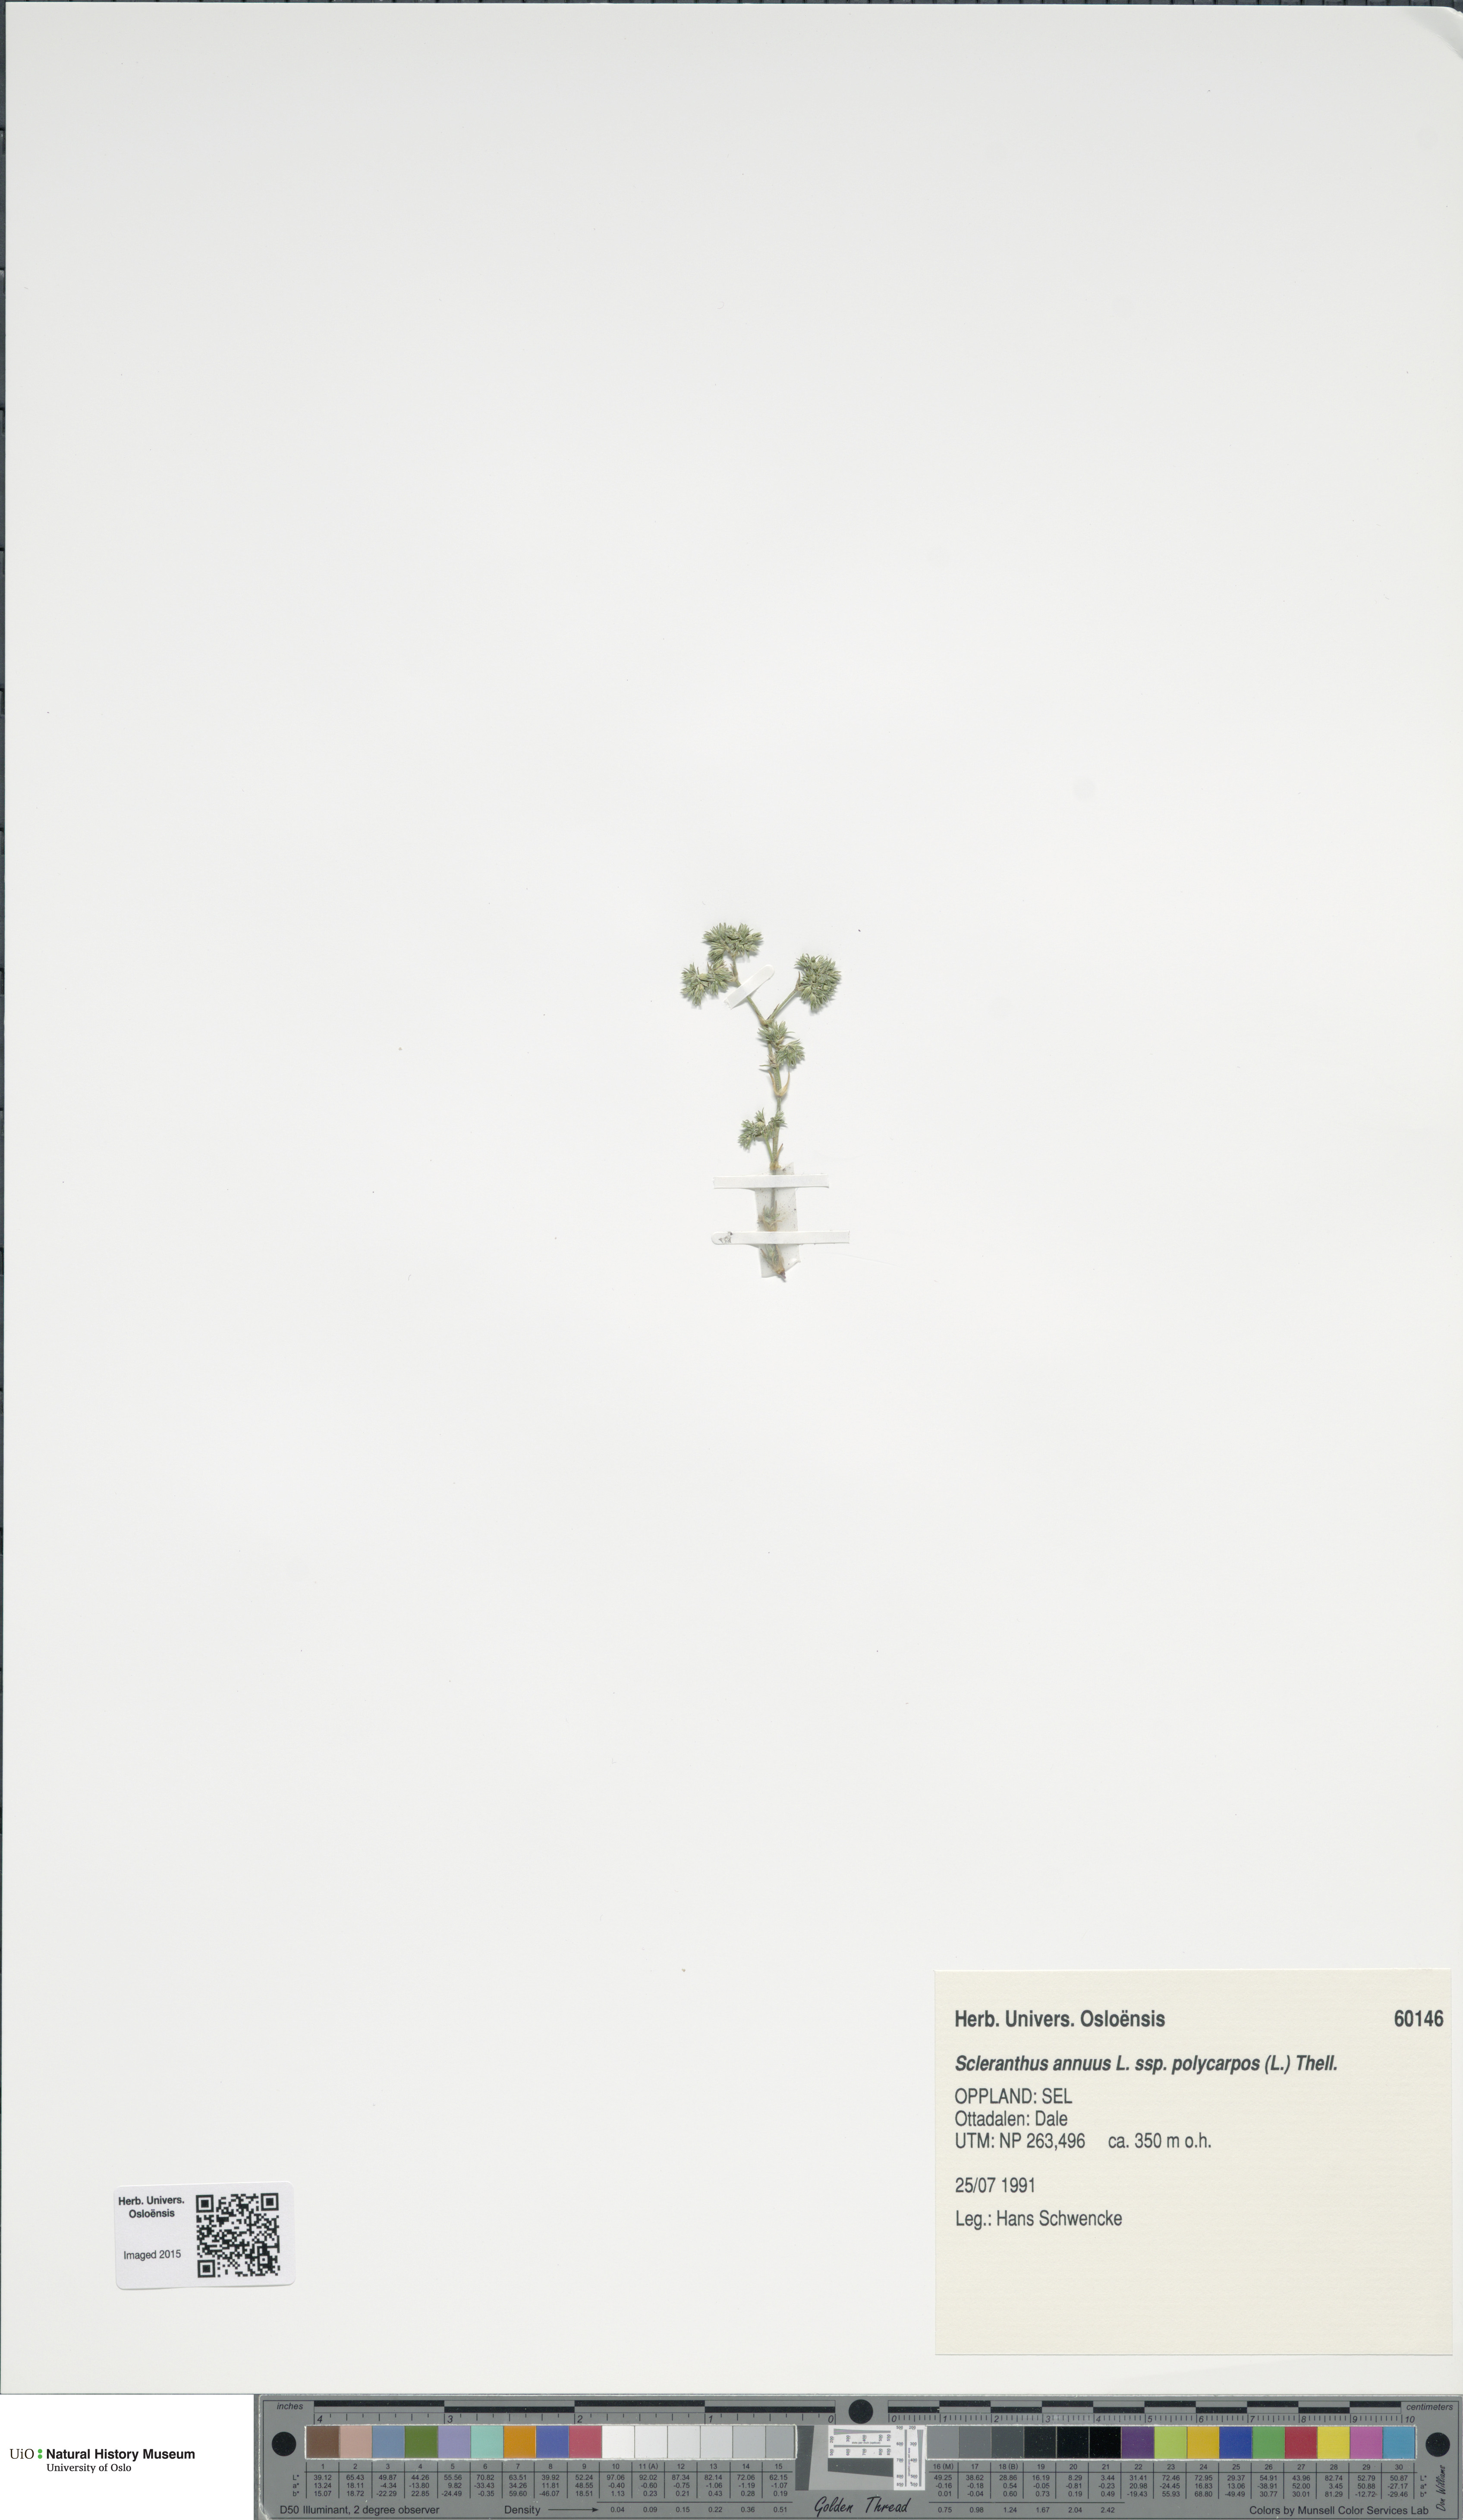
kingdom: Plantae
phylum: Tracheophyta
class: Magnoliopsida
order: Caryophyllales
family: Caryophyllaceae
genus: Scleranthus
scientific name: Scleranthus annuus
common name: Annual knawel
